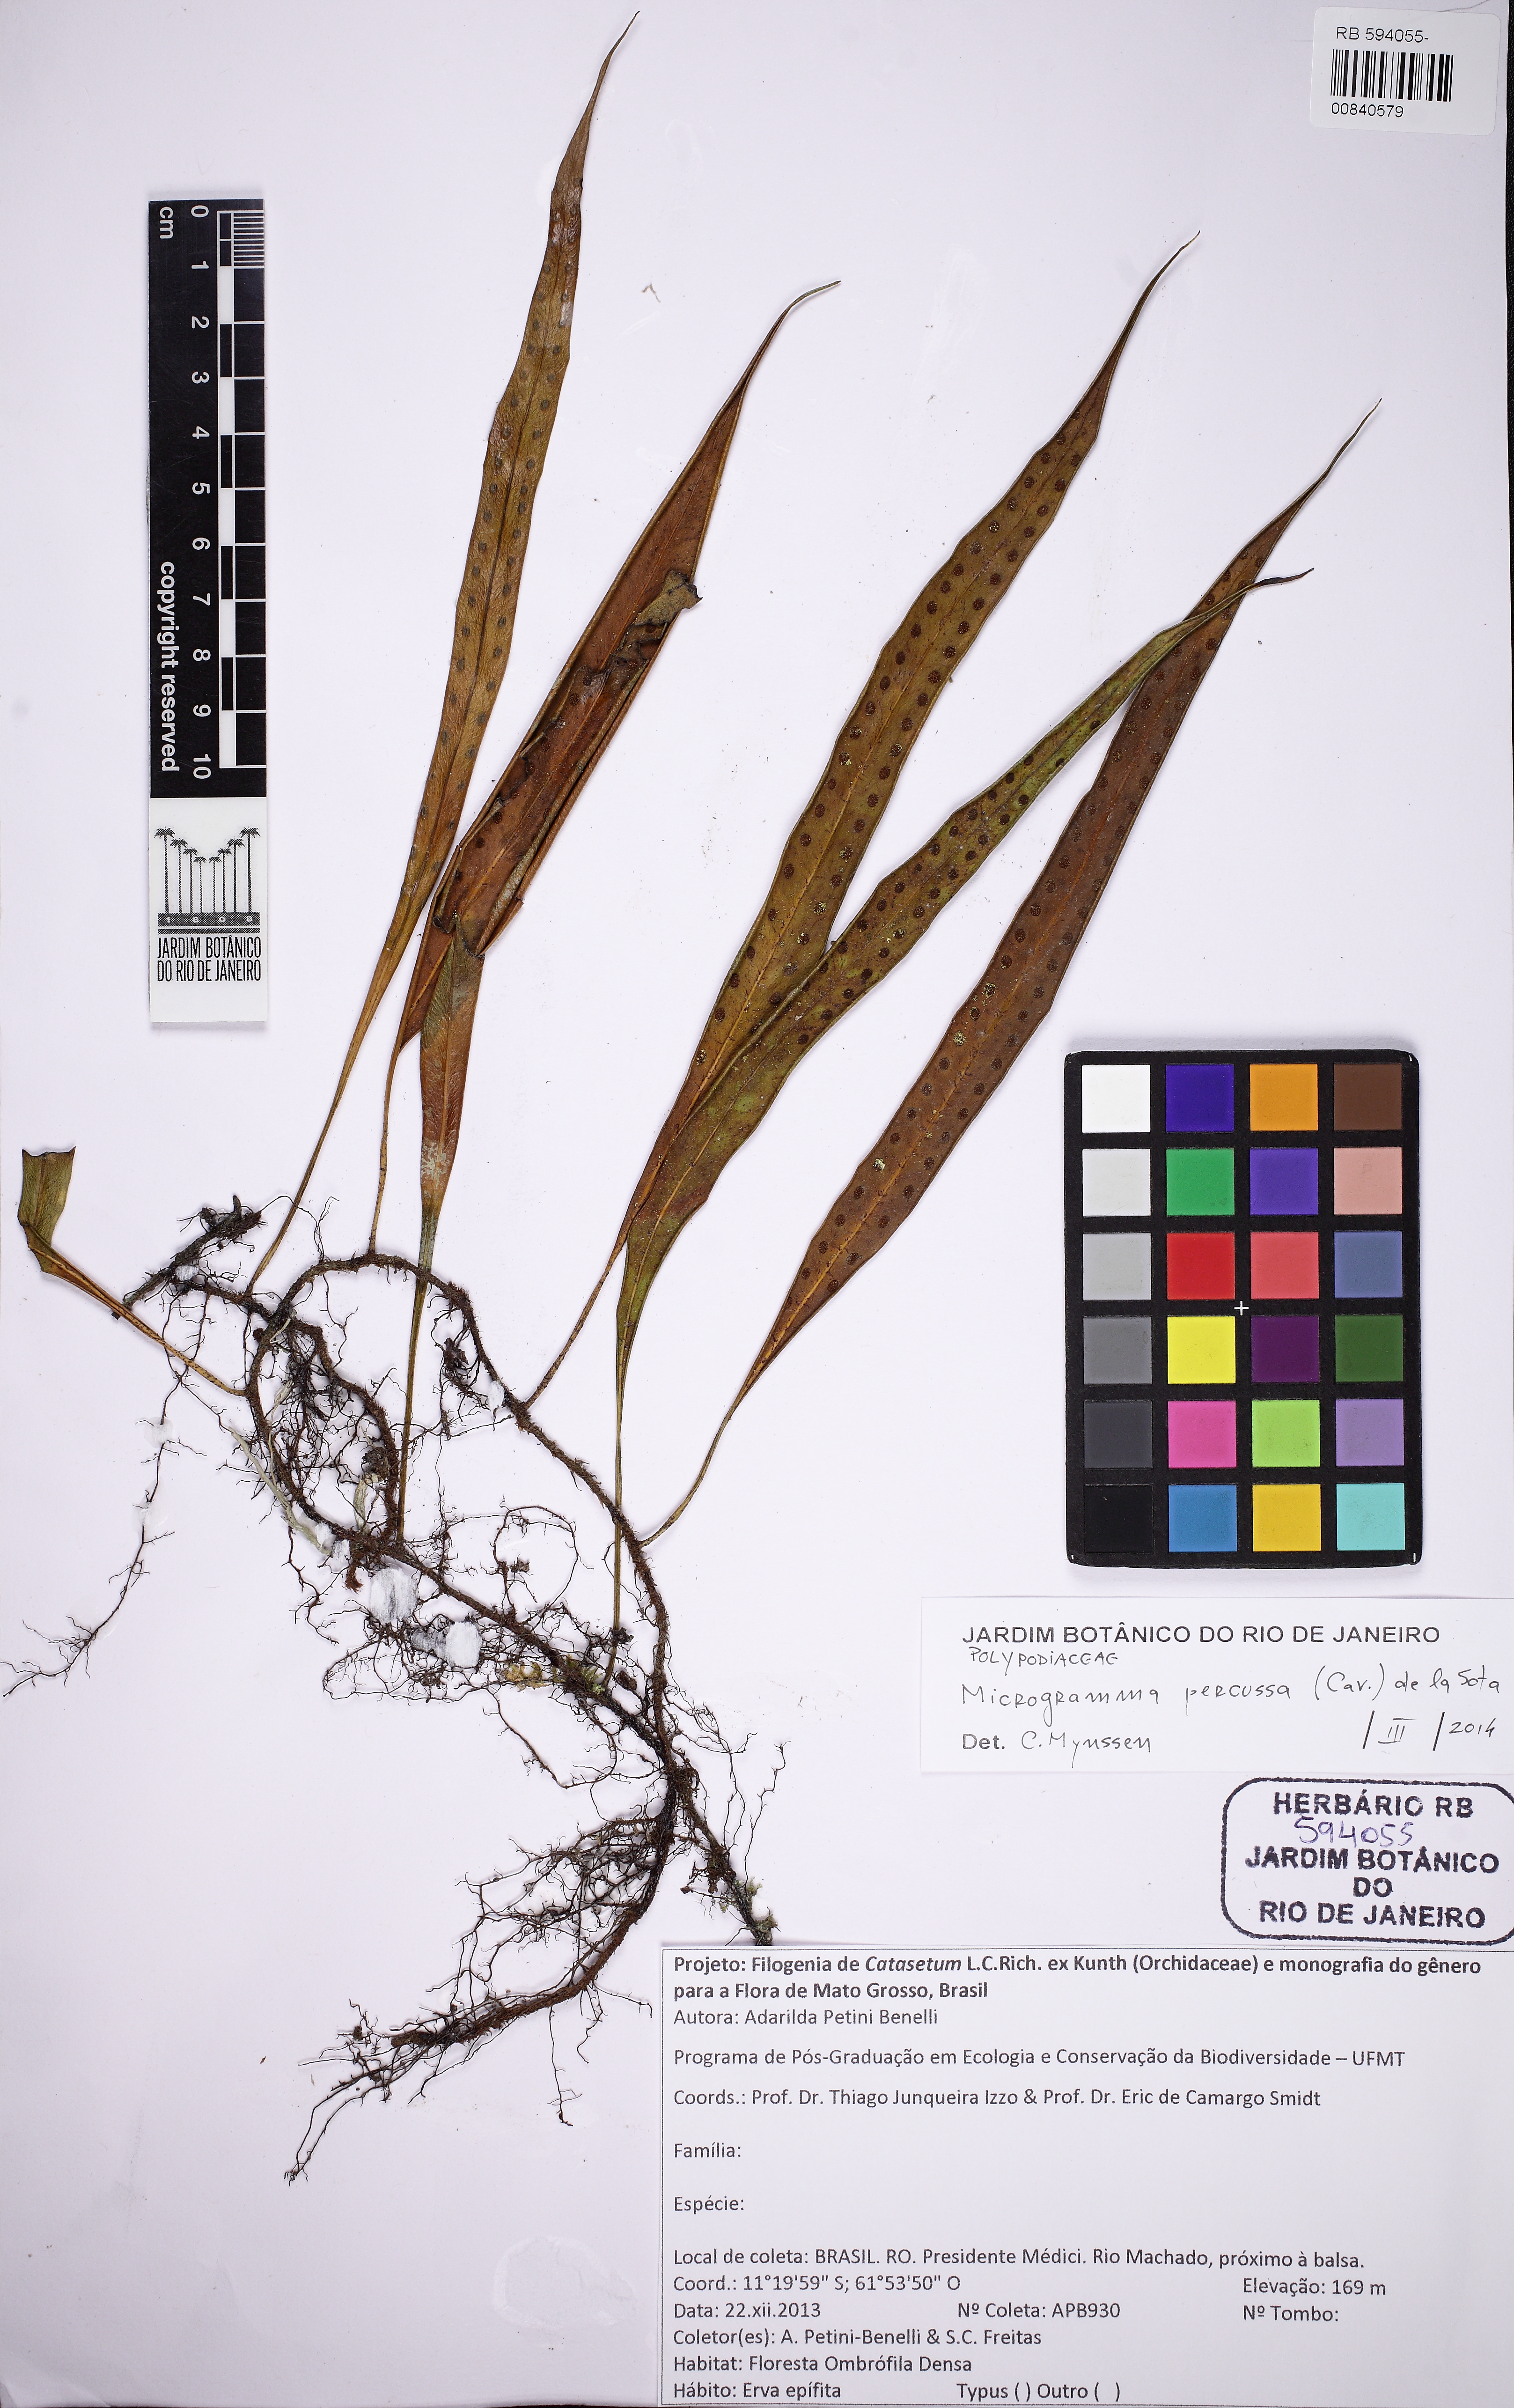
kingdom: Plantae
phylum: Tracheophyta
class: Polypodiopsida
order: Polypodiales
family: Polypodiaceae
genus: Microgramma
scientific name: Microgramma percussa
